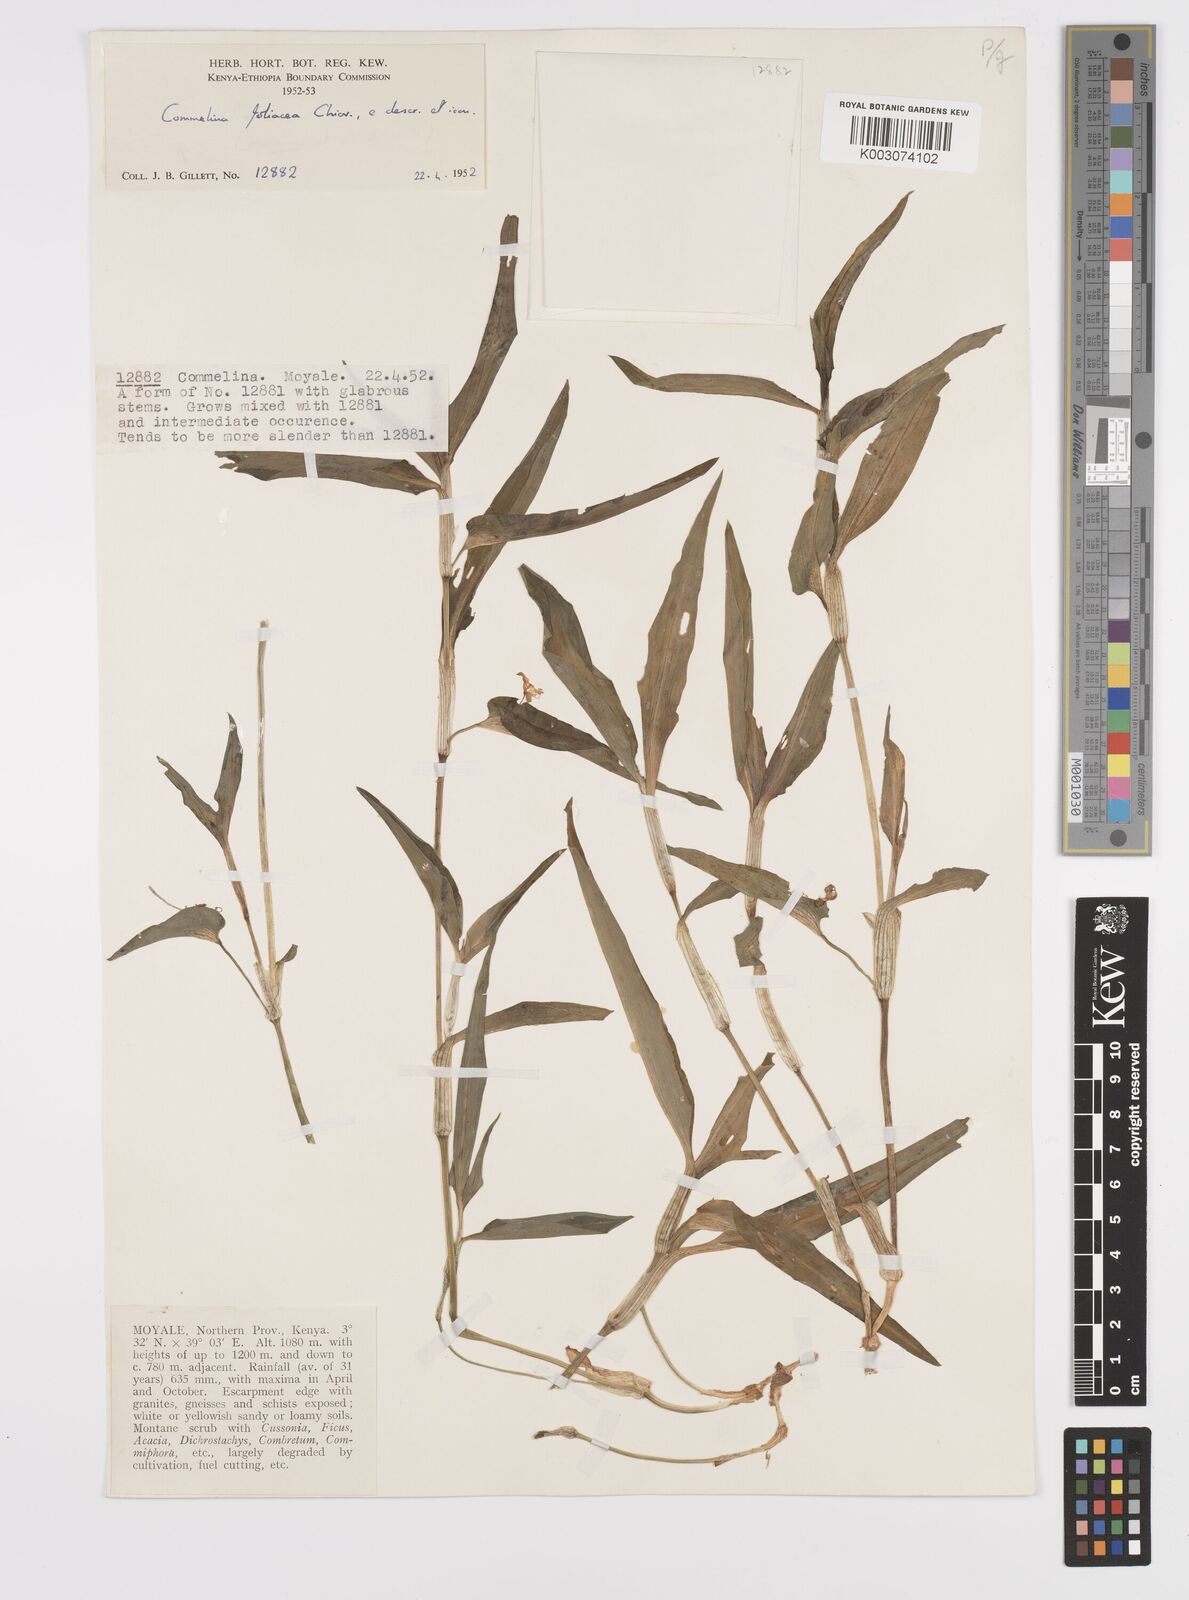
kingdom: Plantae
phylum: Tracheophyta
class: Liliopsida
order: Commelinales
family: Commelinaceae
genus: Commelina
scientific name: Commelina foliacea
